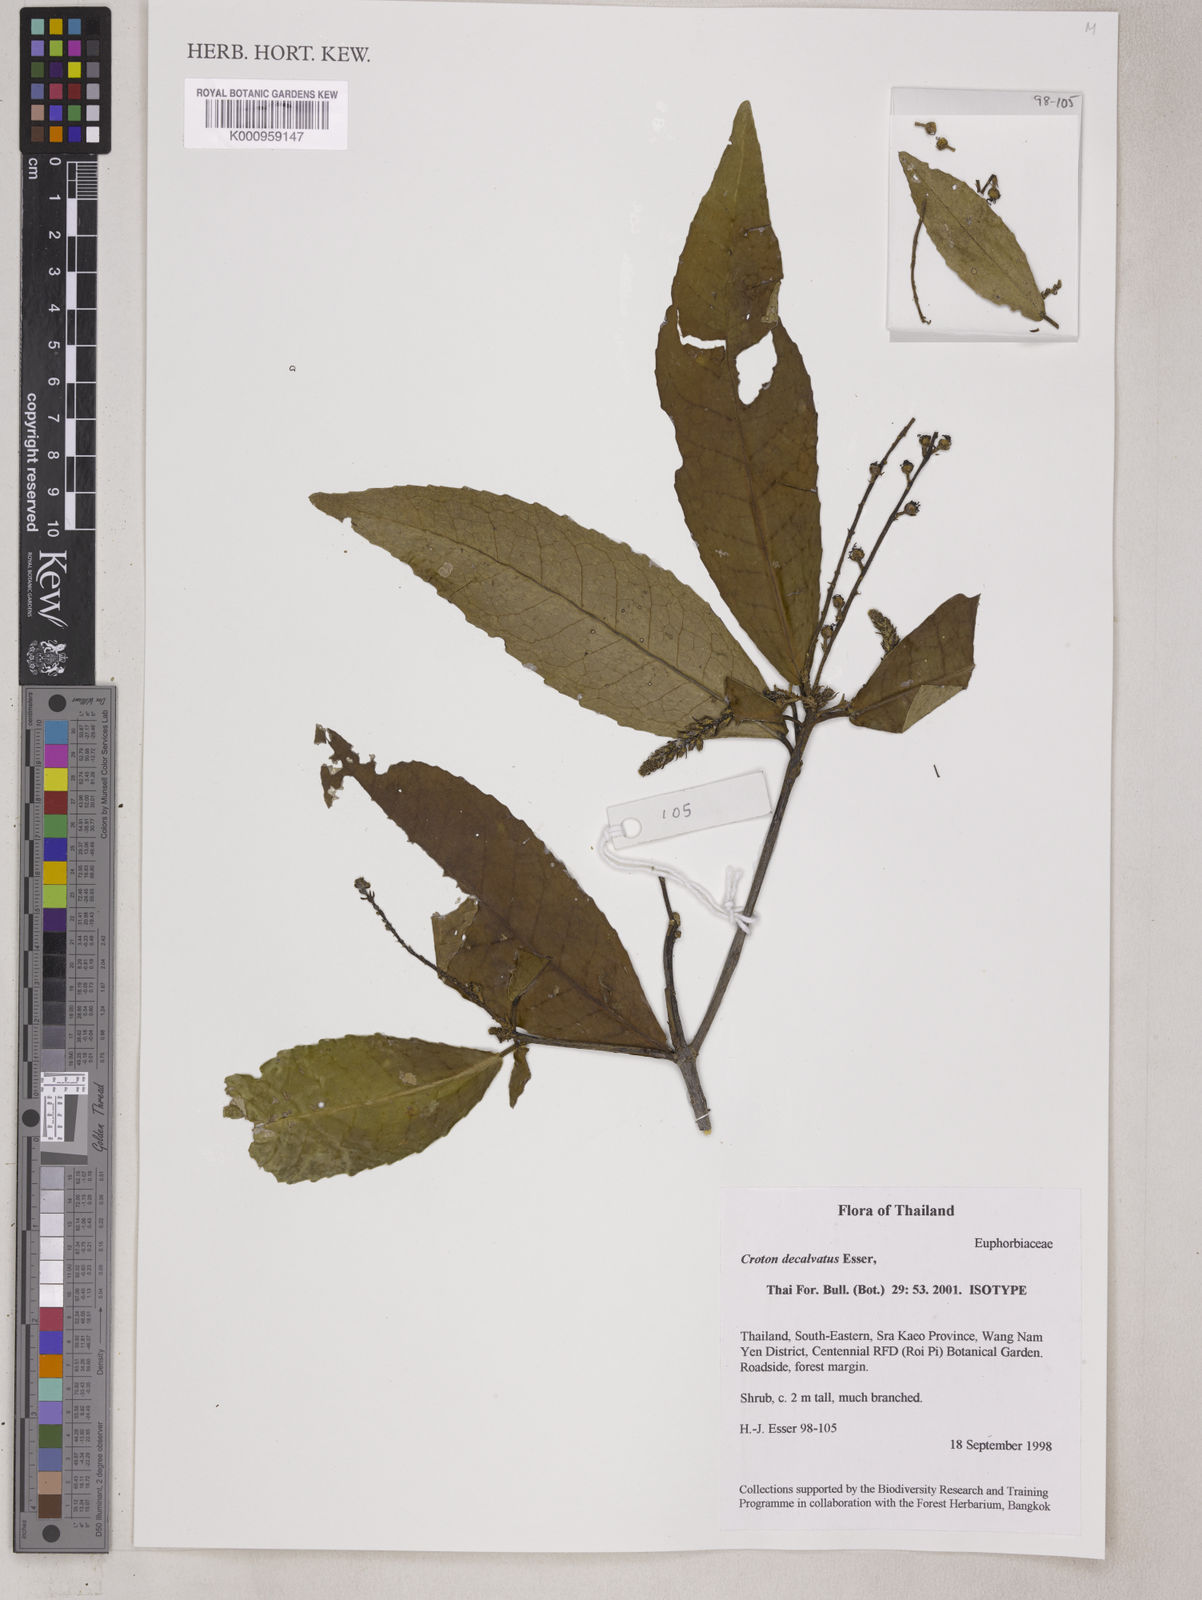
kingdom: Plantae
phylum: Tracheophyta
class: Magnoliopsida
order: Malpighiales
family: Euphorbiaceae
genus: Croton
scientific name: Croton decalvatus
